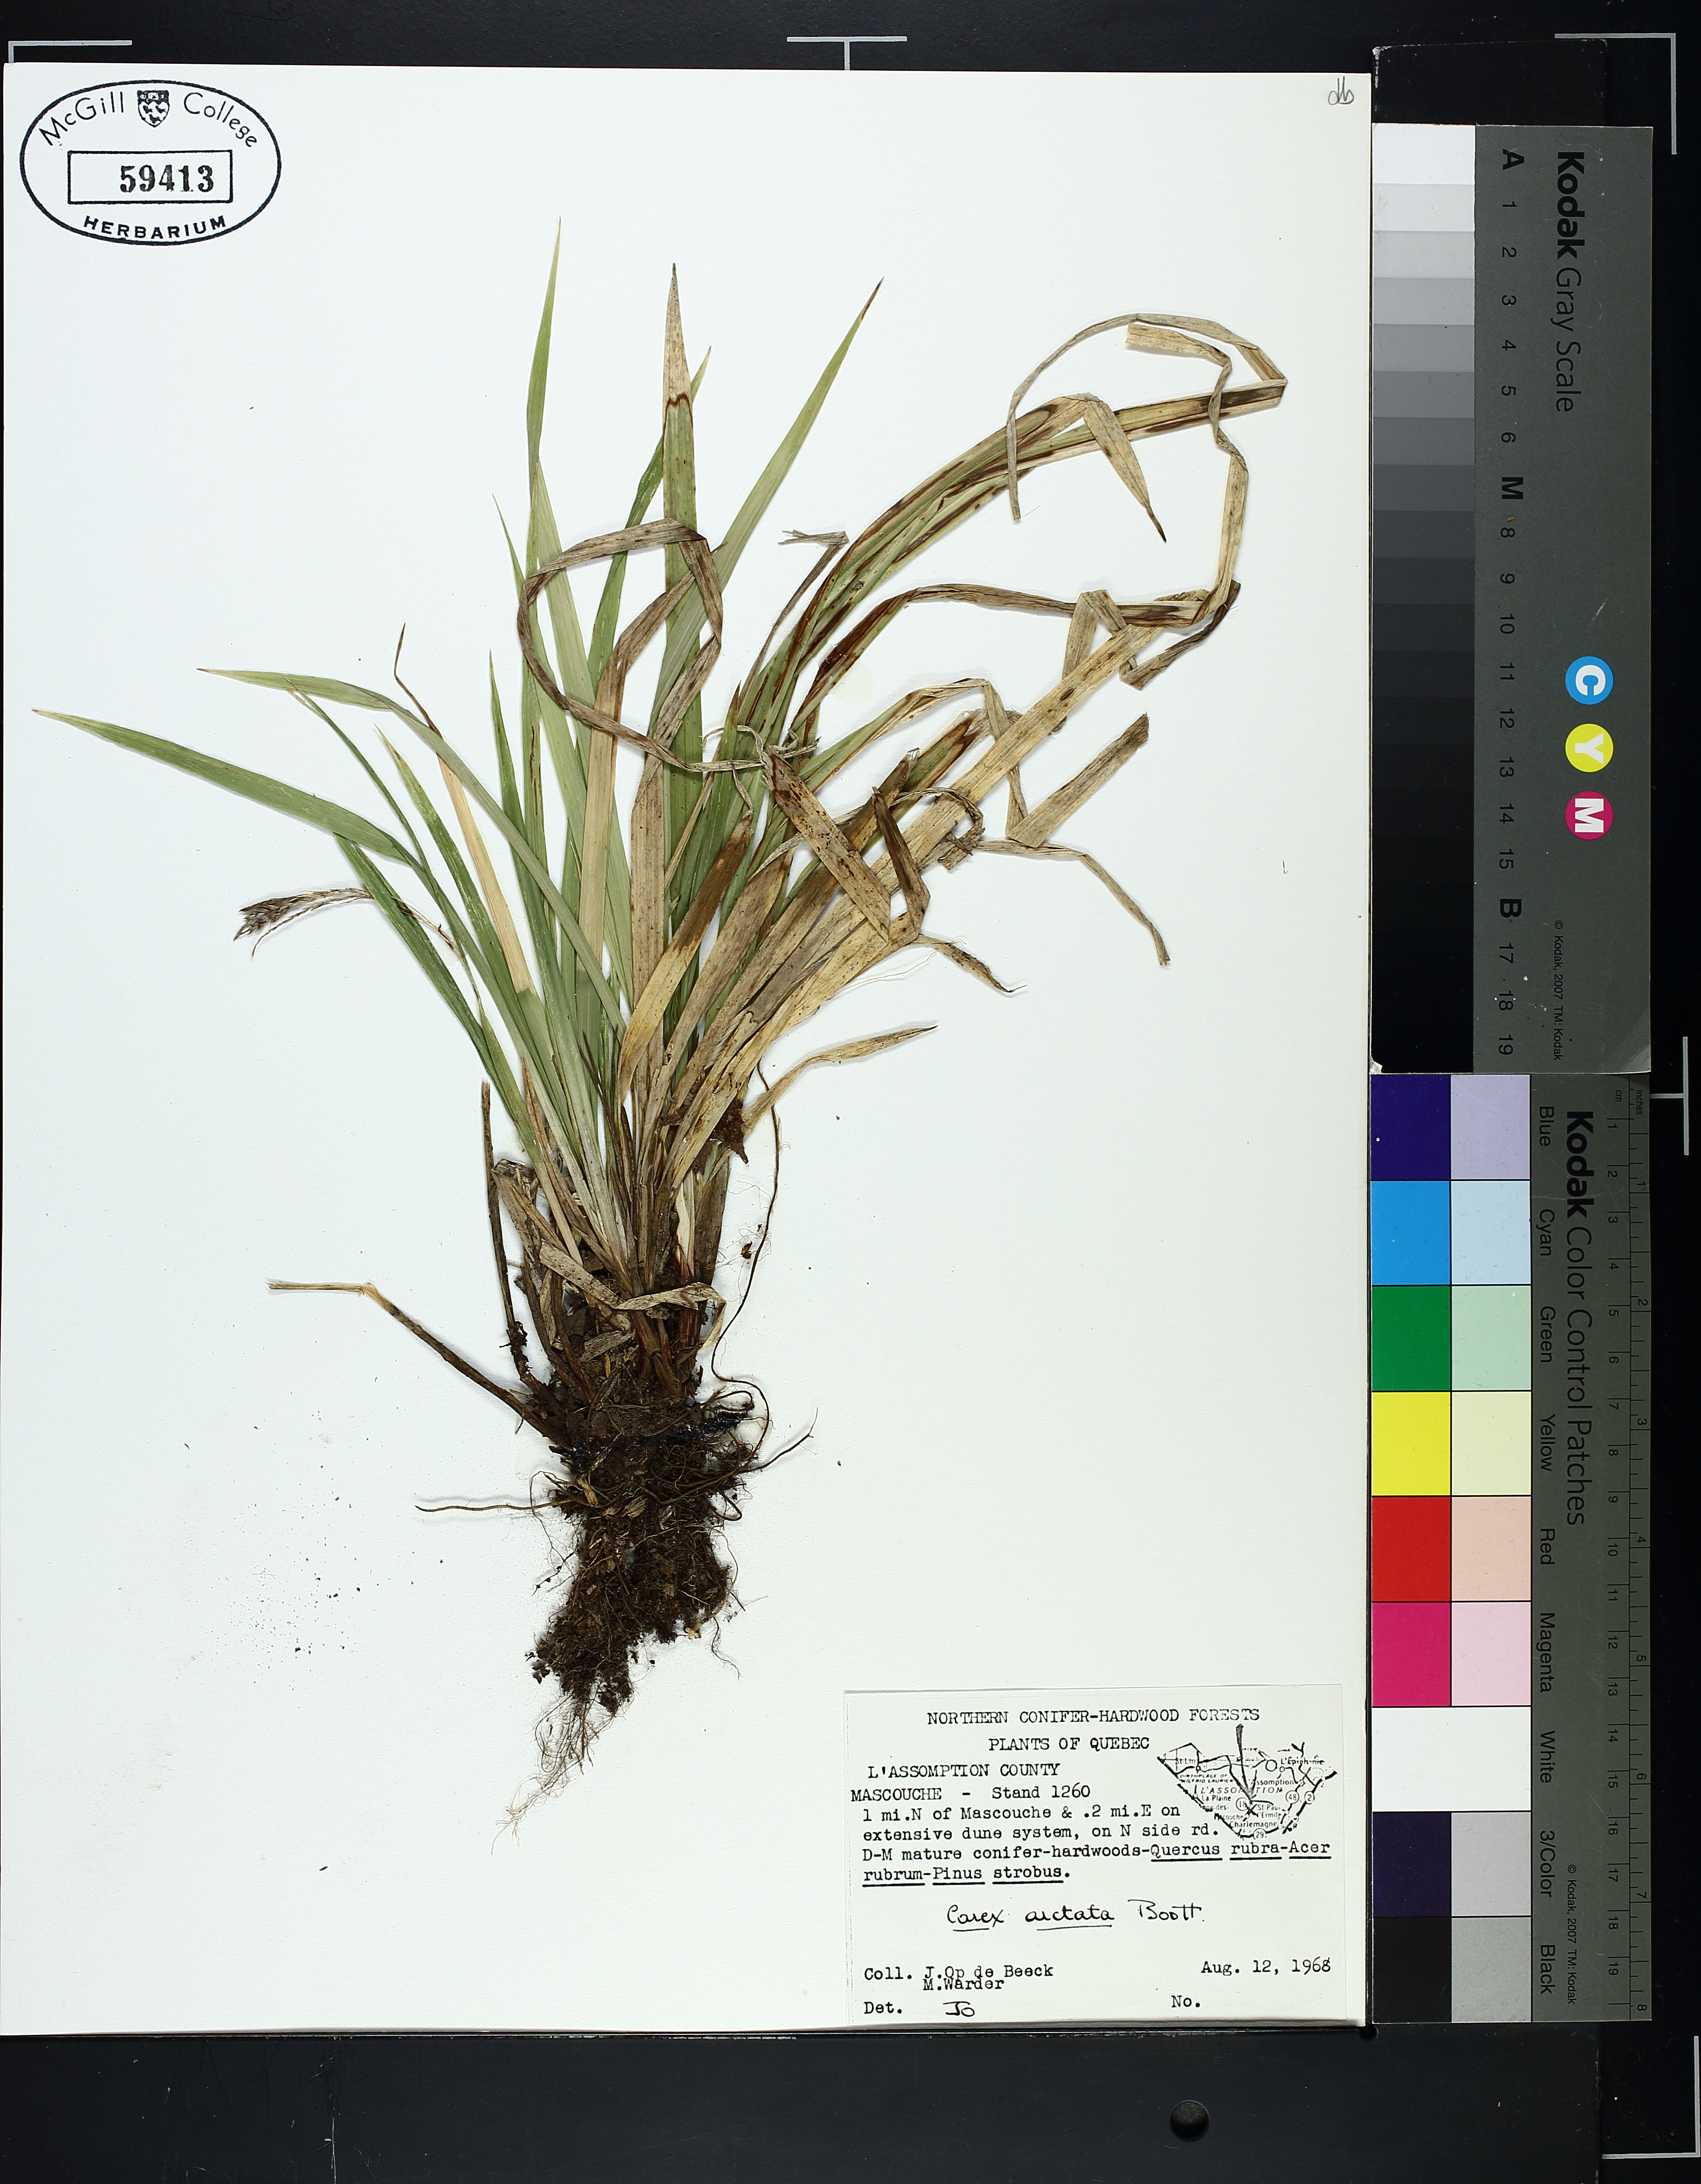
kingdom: Plantae
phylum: Tracheophyta
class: Liliopsida
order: Poales
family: Cyperaceae
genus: Carex
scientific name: Carex arctata
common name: Black sedge
